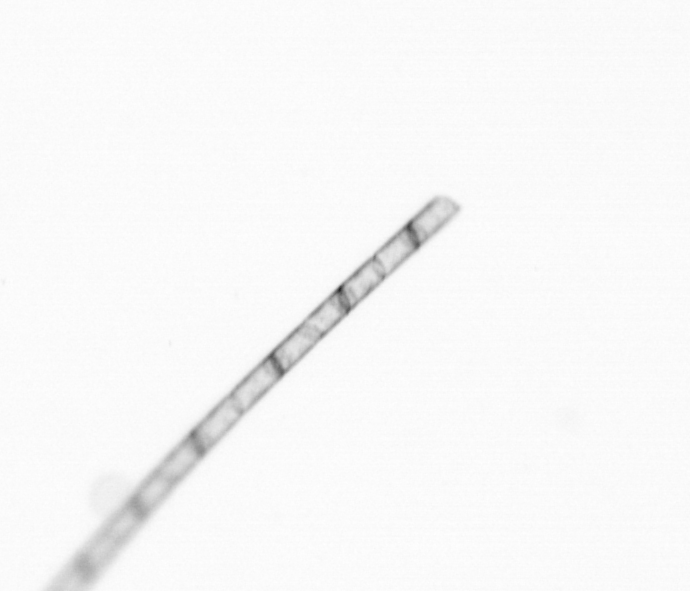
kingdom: Chromista
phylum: Ochrophyta
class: Bacillariophyceae
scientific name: Bacillariophyceae
